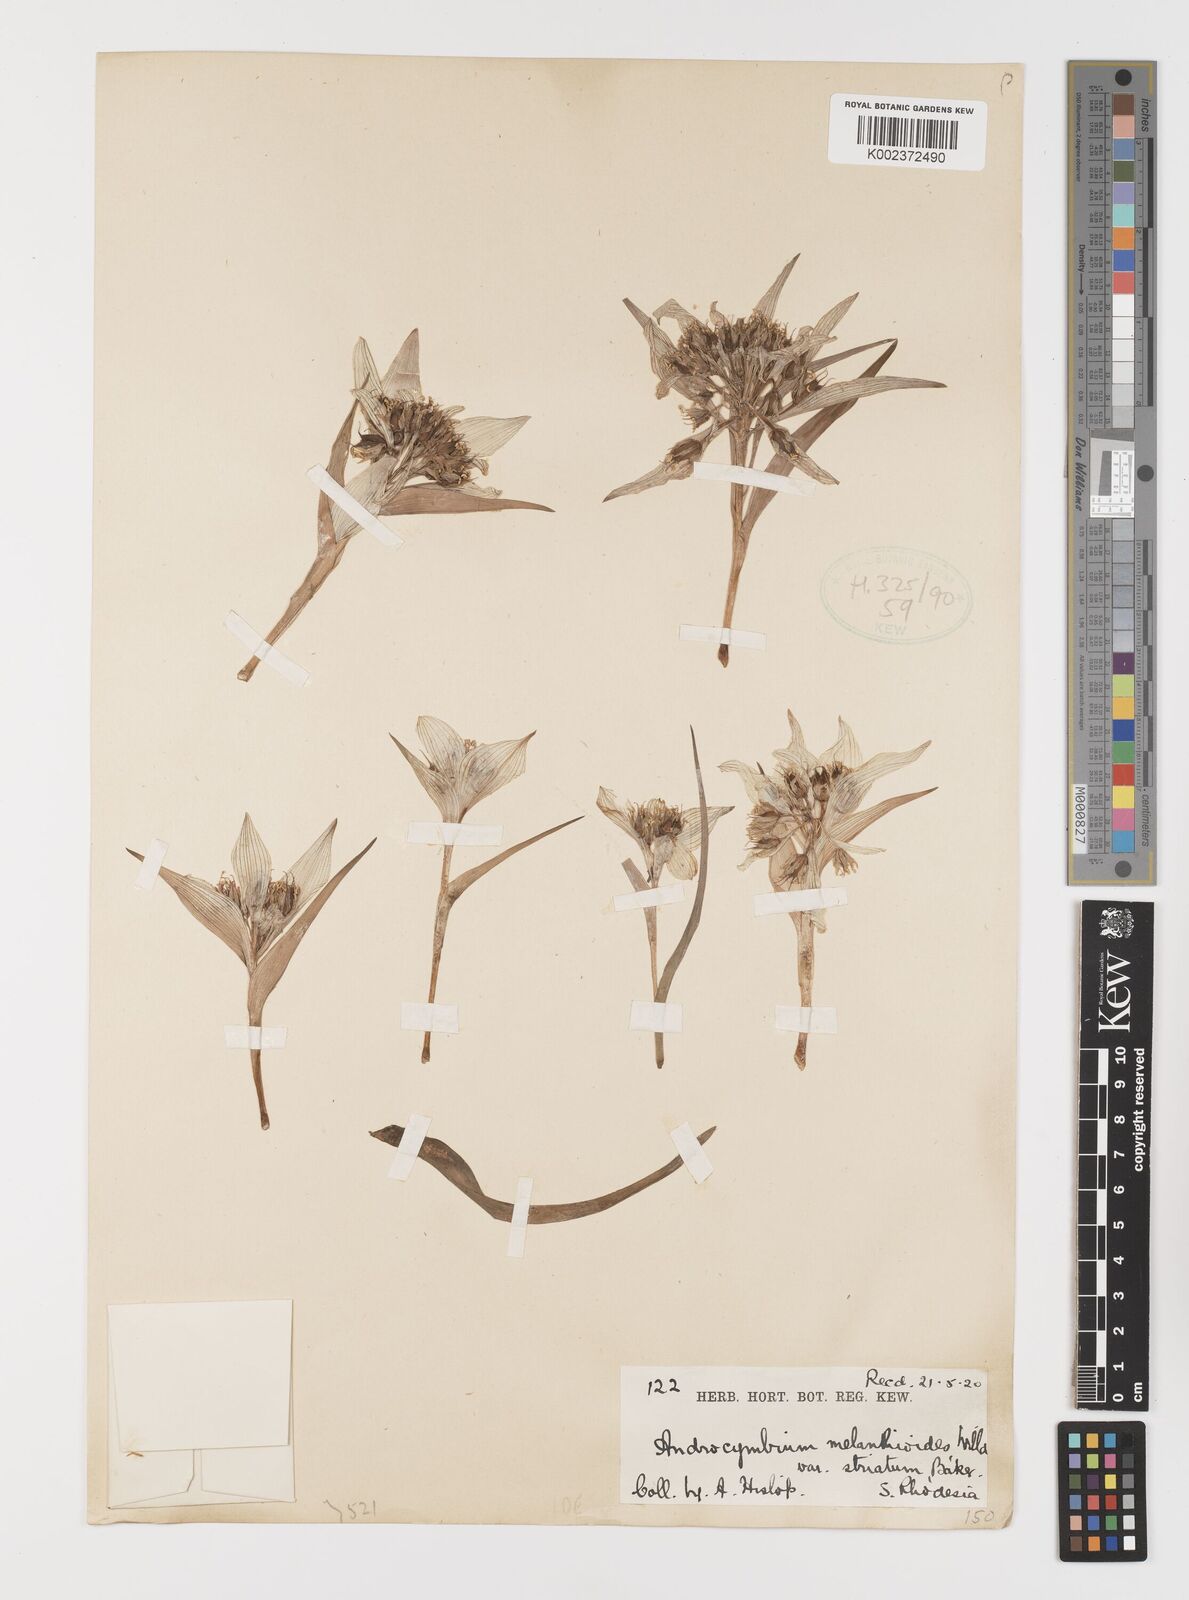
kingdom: Plantae
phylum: Tracheophyta
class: Liliopsida
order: Liliales
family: Colchicaceae
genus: Colchicum
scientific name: Colchicum striatum
